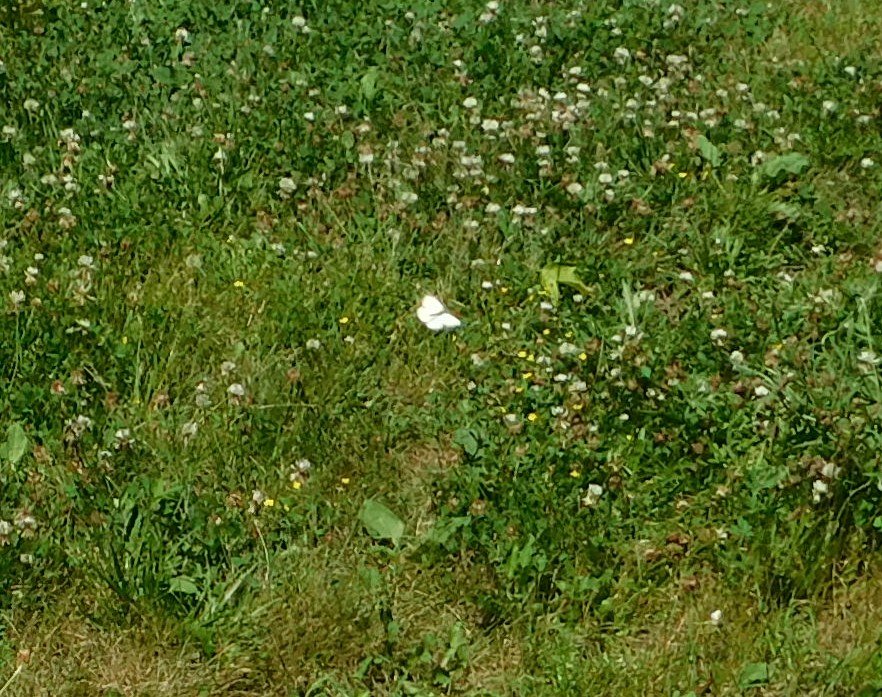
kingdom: Animalia
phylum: Arthropoda
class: Insecta
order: Lepidoptera
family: Pieridae
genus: Pieris
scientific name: Pieris rapae
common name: Cabbage White
